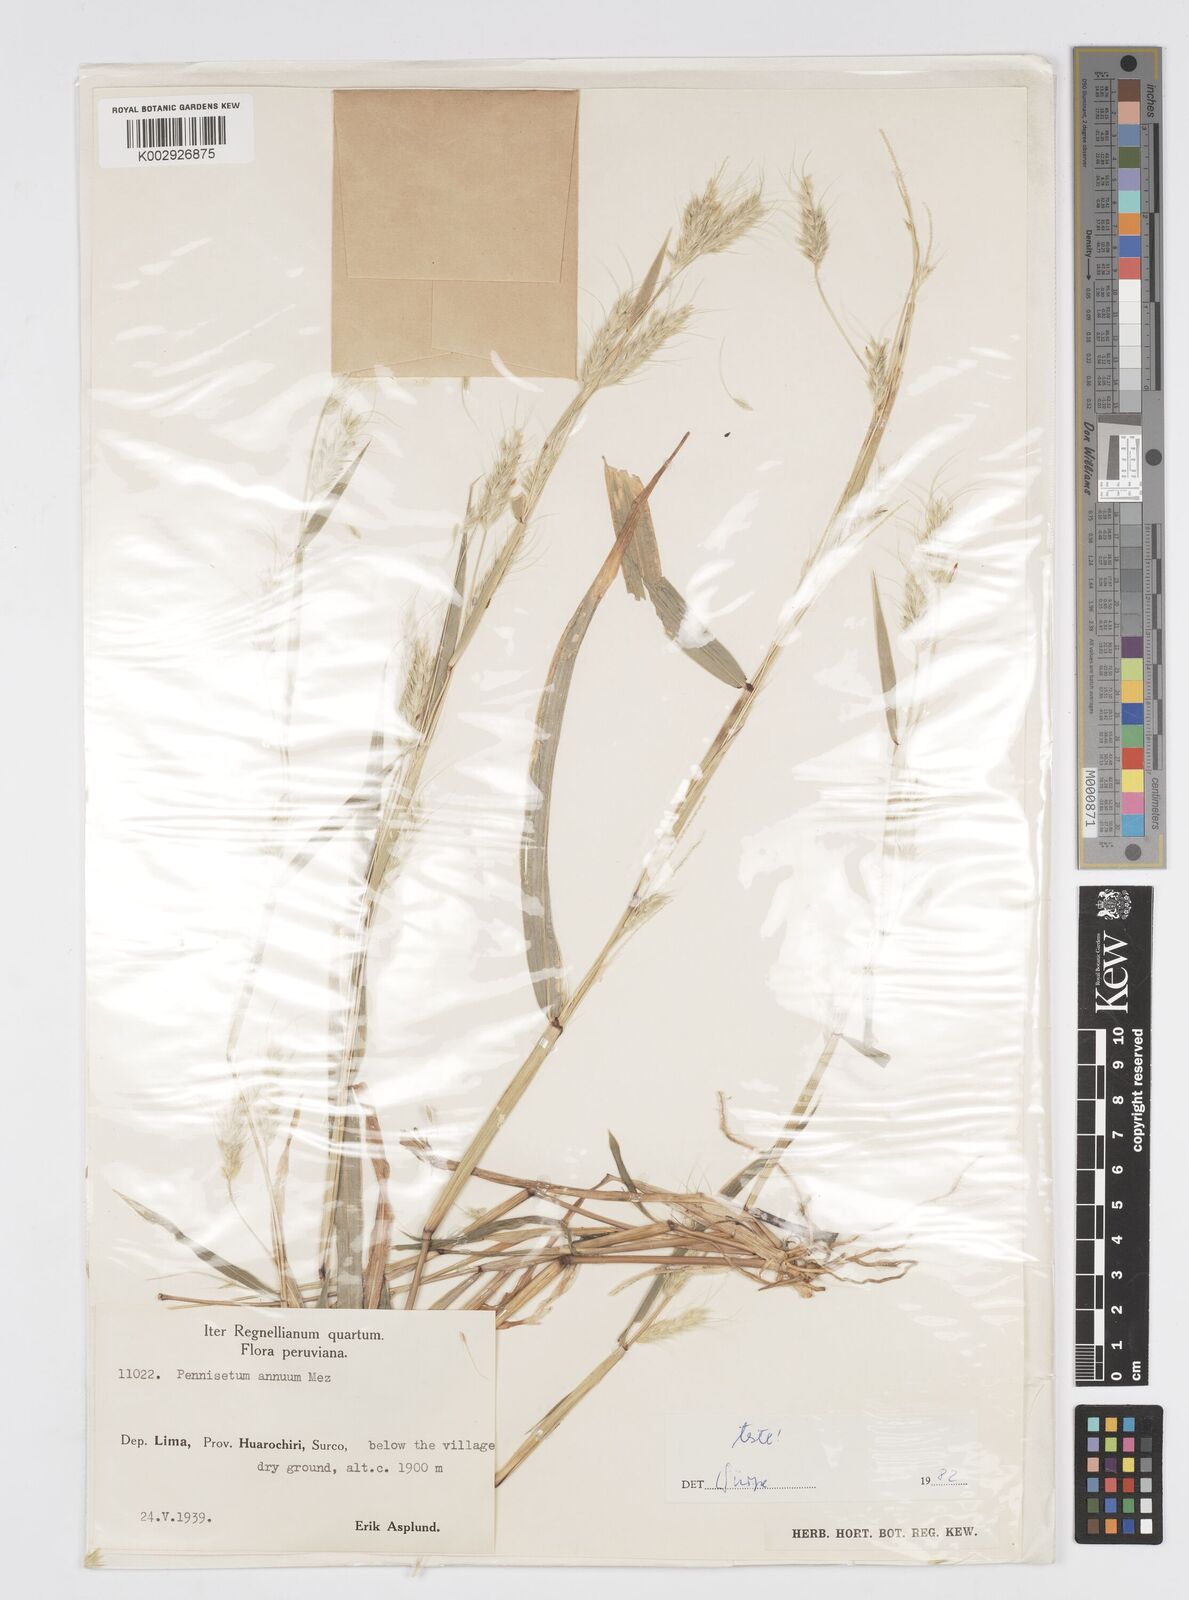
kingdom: Plantae
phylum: Tracheophyta
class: Liliopsida
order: Poales
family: Poaceae
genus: Cenchrus
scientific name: Cenchrus annuus
